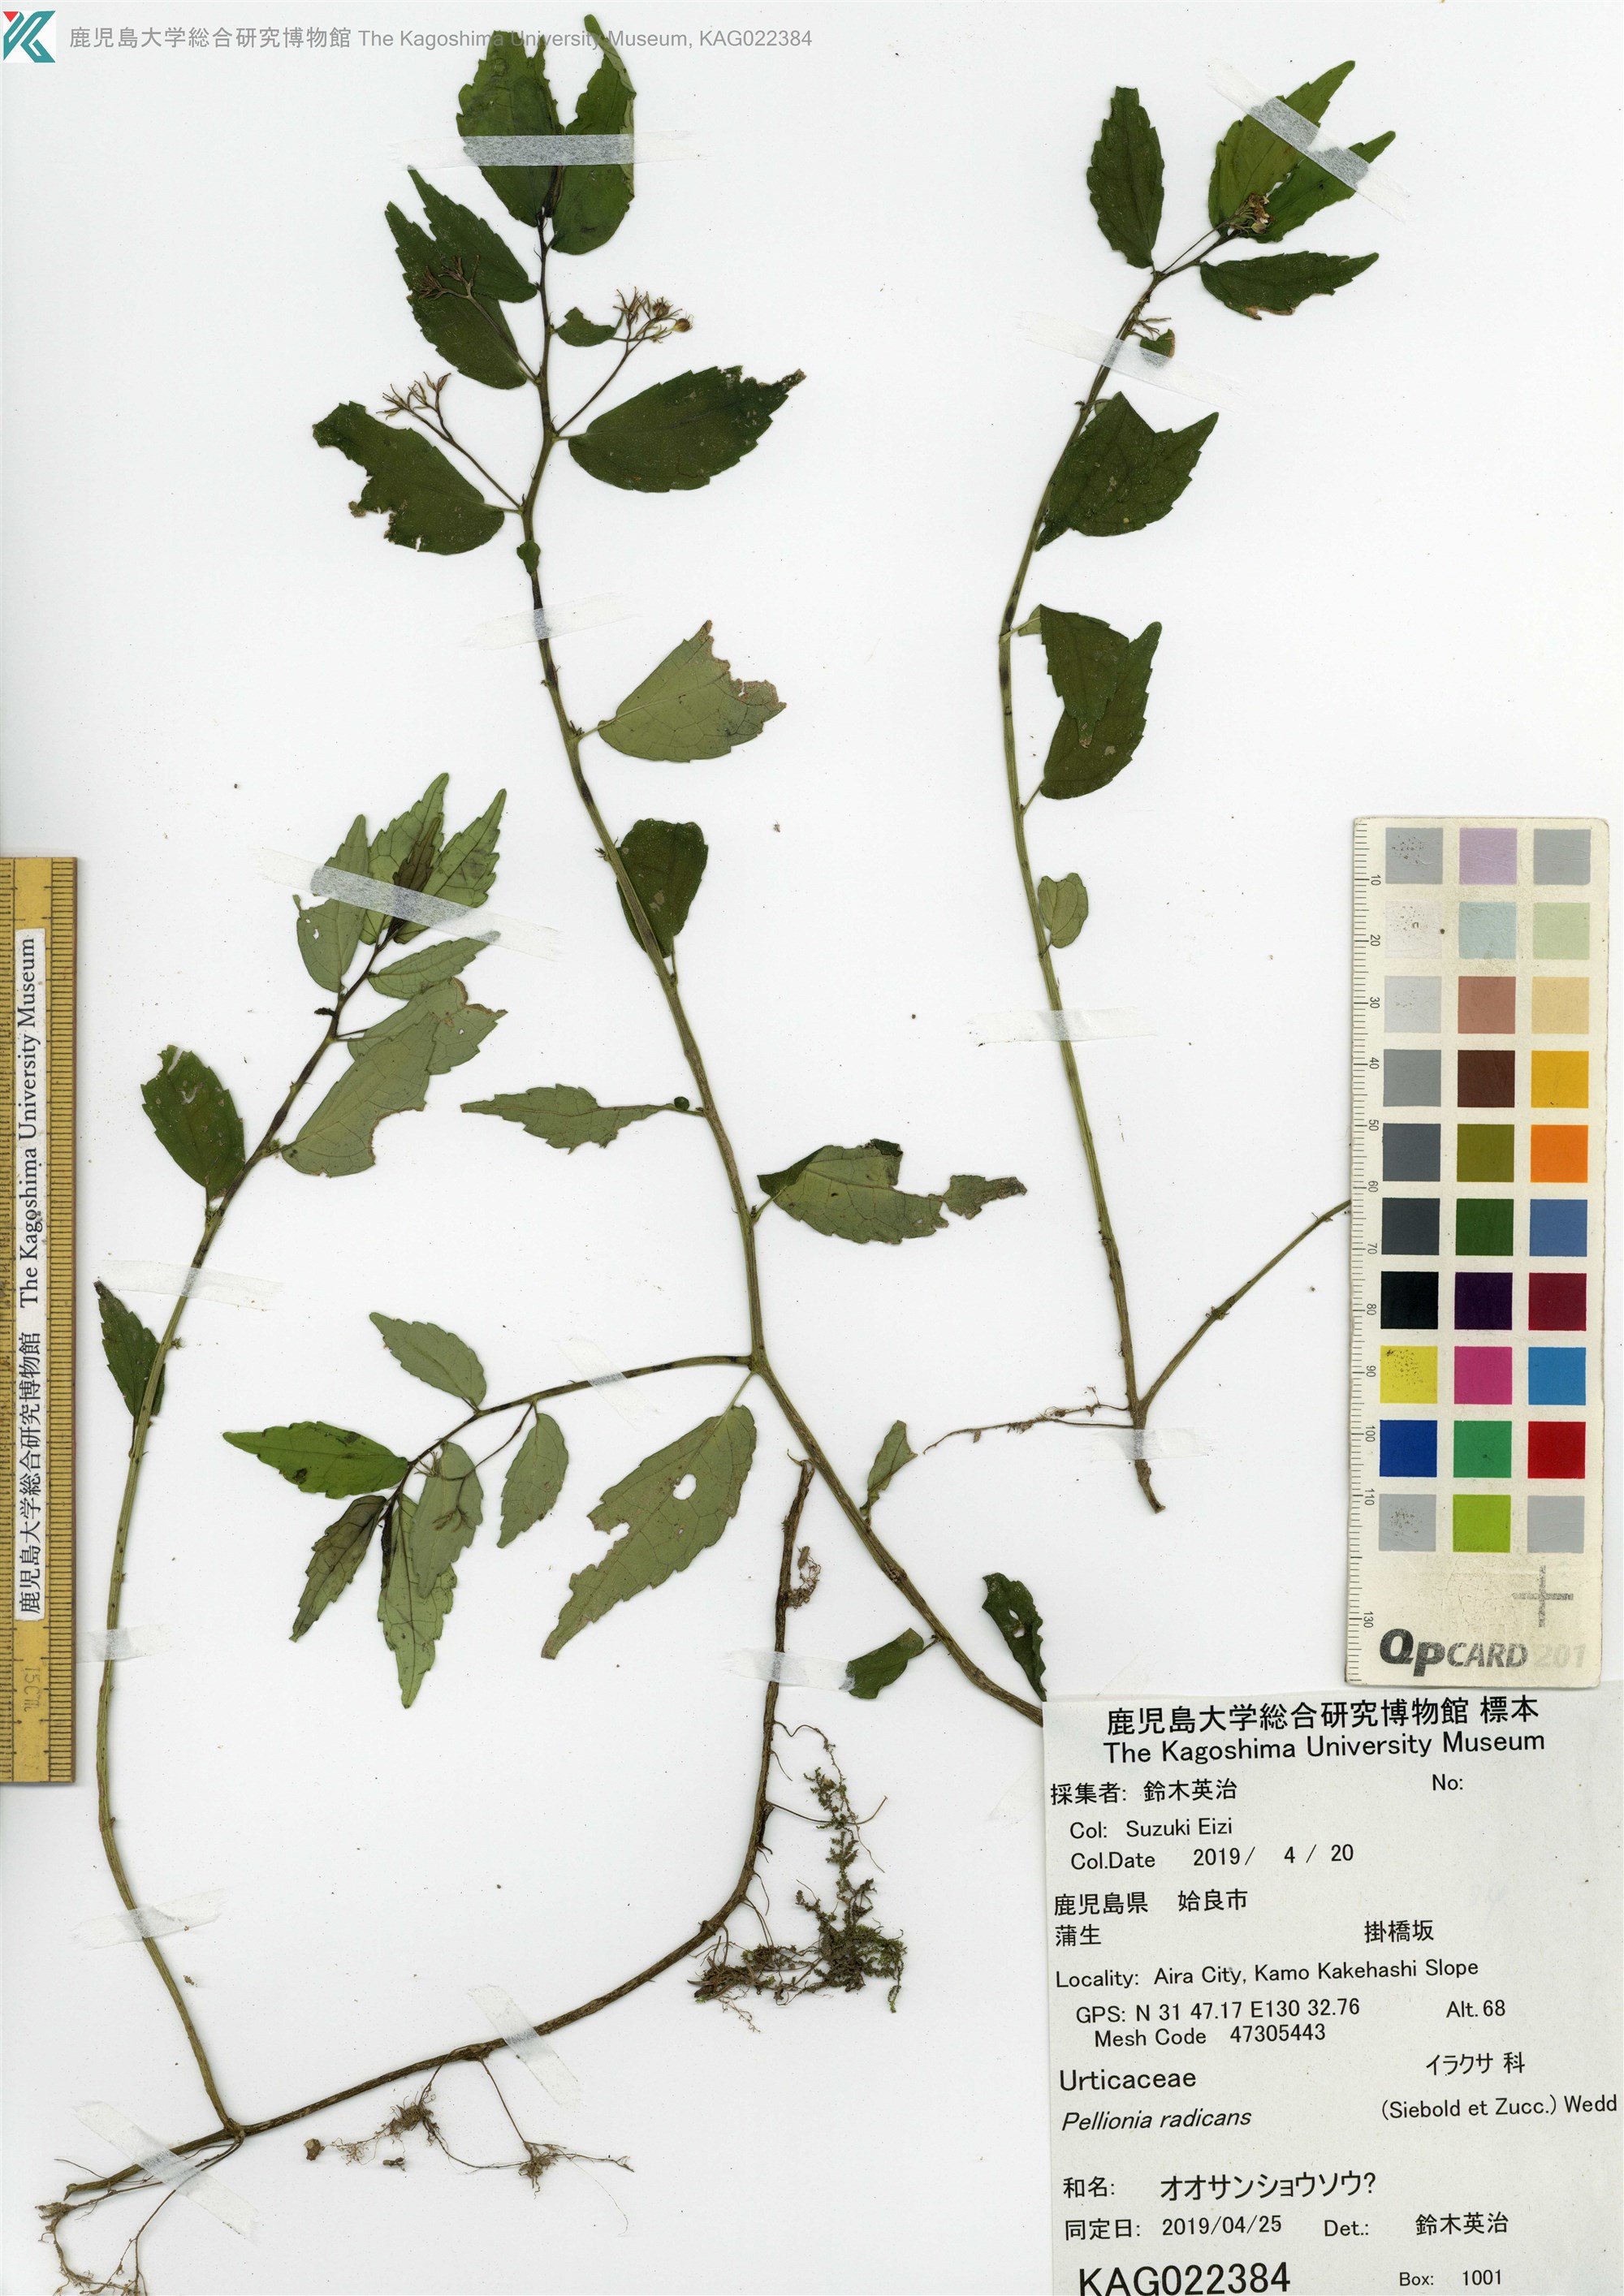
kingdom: Plantae
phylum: Tracheophyta
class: Magnoliopsida
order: Rosales
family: Urticaceae
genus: Elatostema
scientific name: Elatostema radicans
